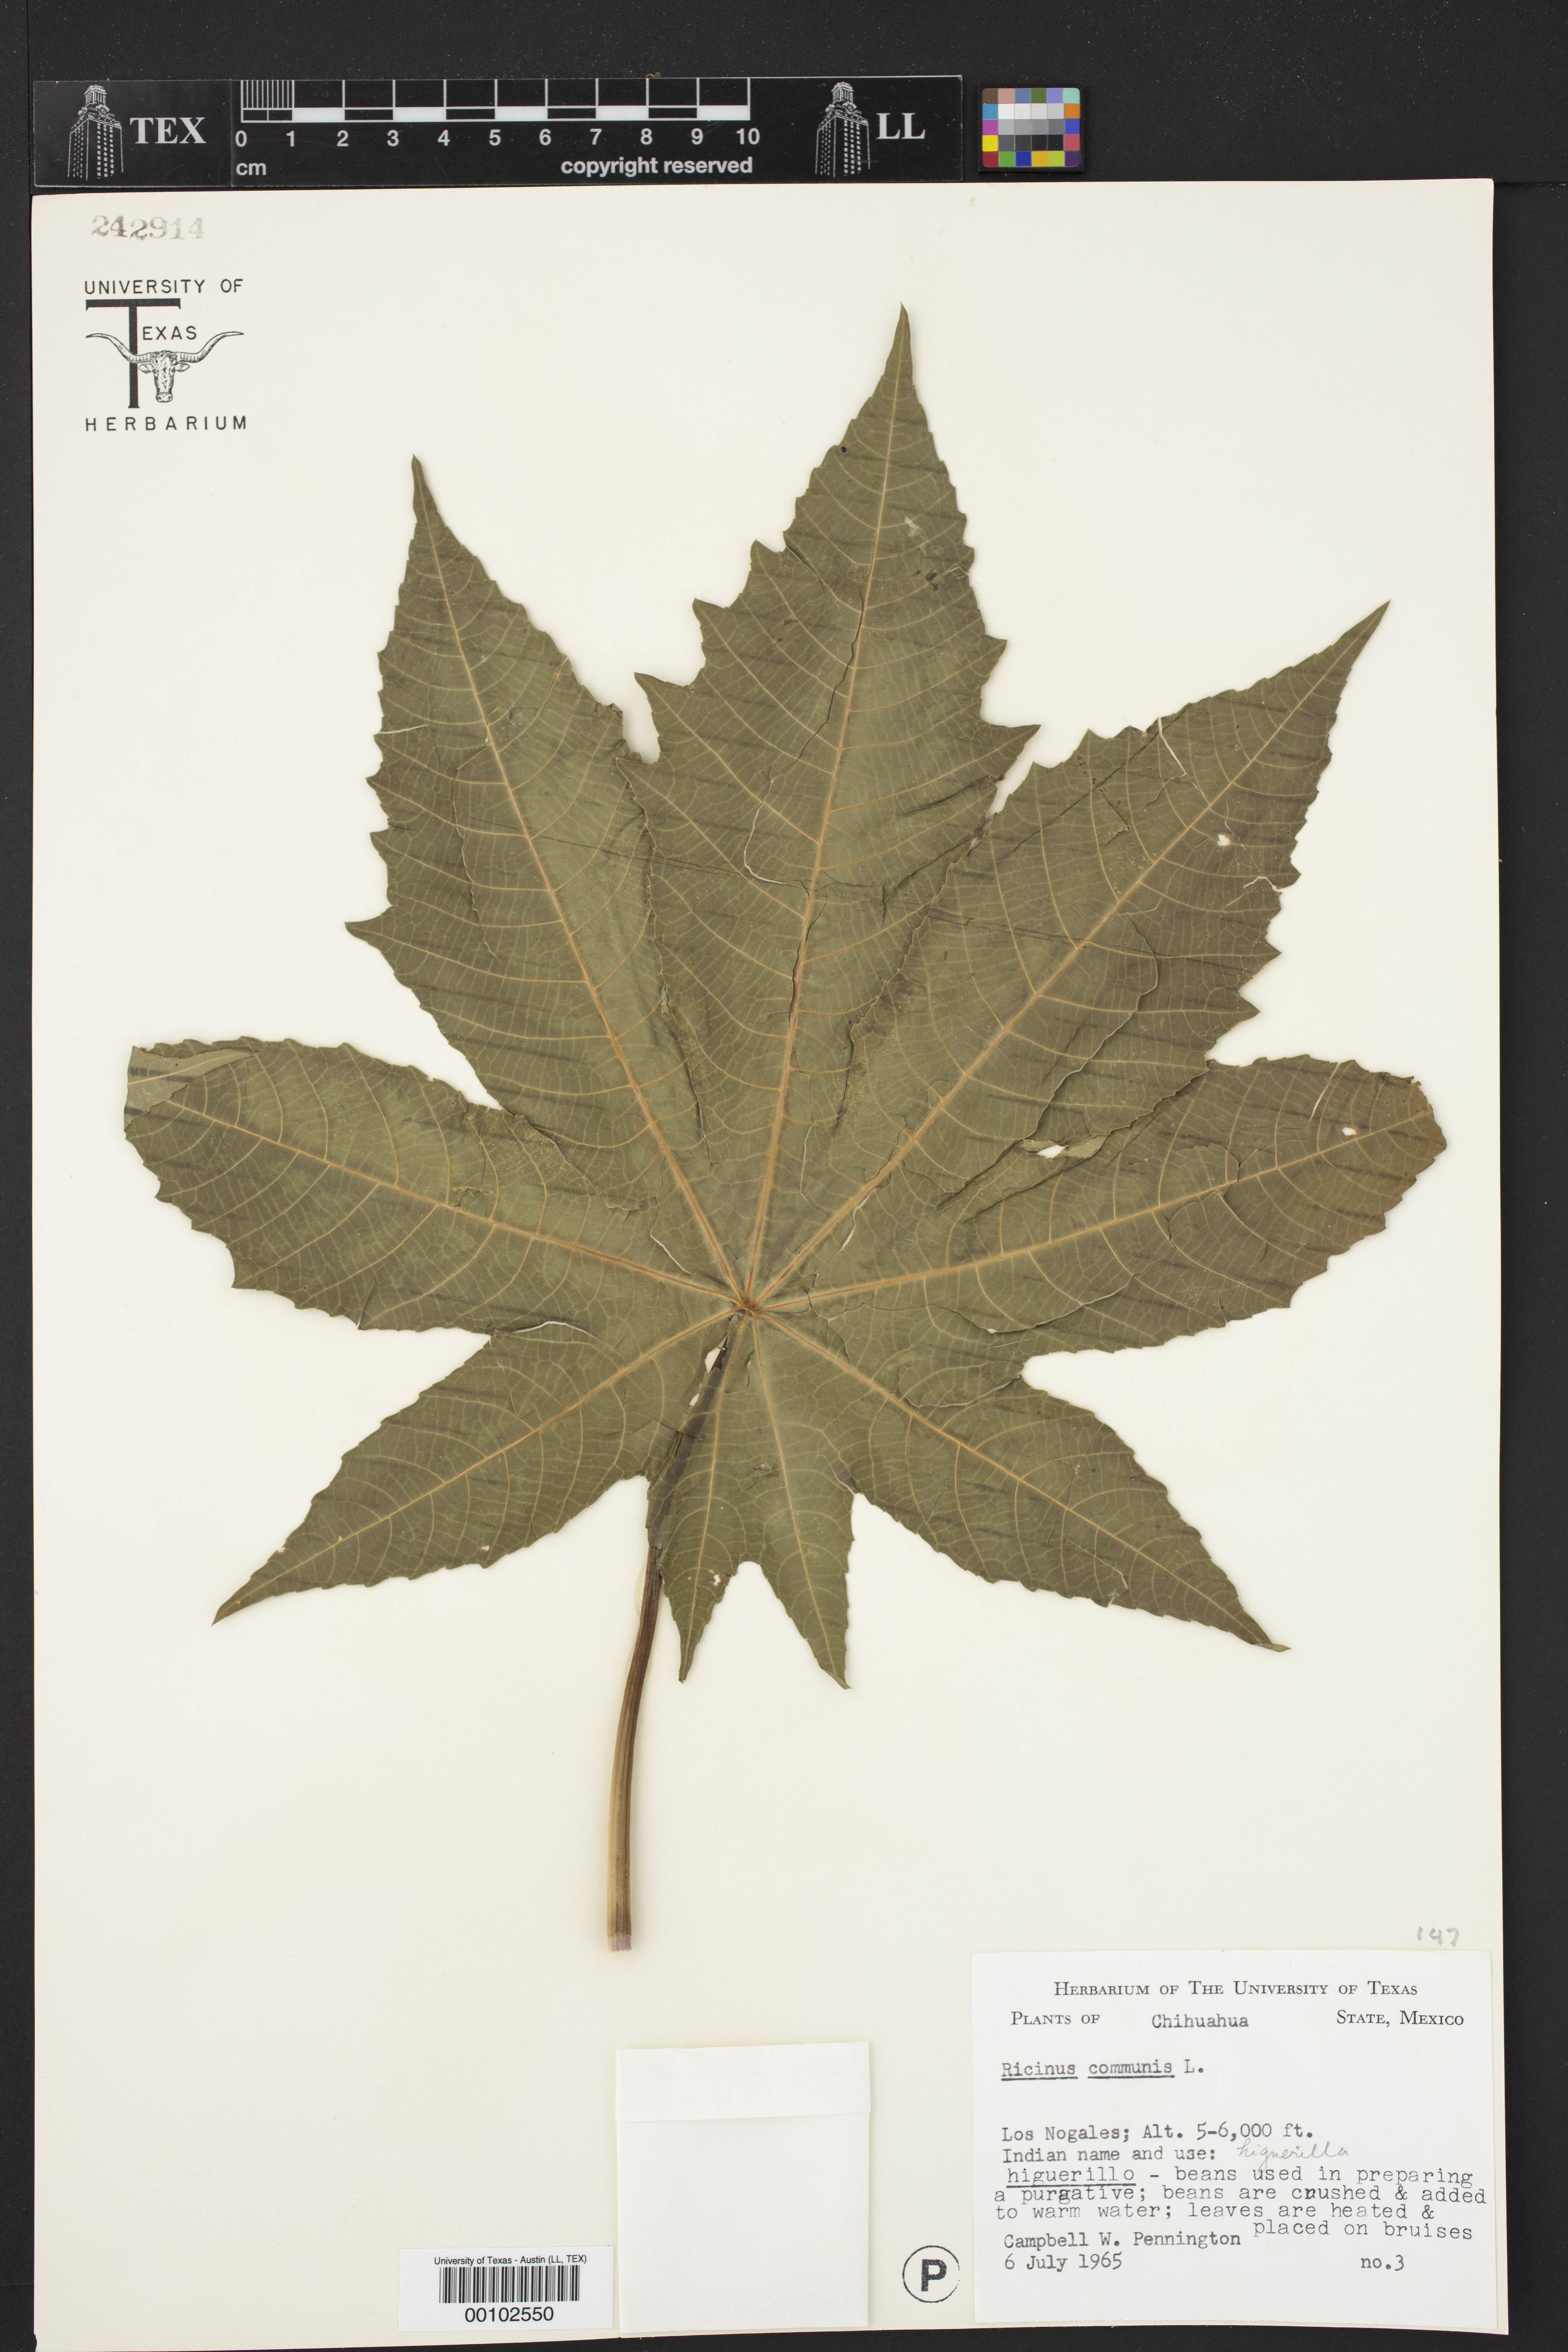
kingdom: Plantae
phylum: Tracheophyta
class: Magnoliopsida
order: Malpighiales
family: Euphorbiaceae
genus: Ricinus
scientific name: Ricinus communis
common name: Castor-oil-plant
